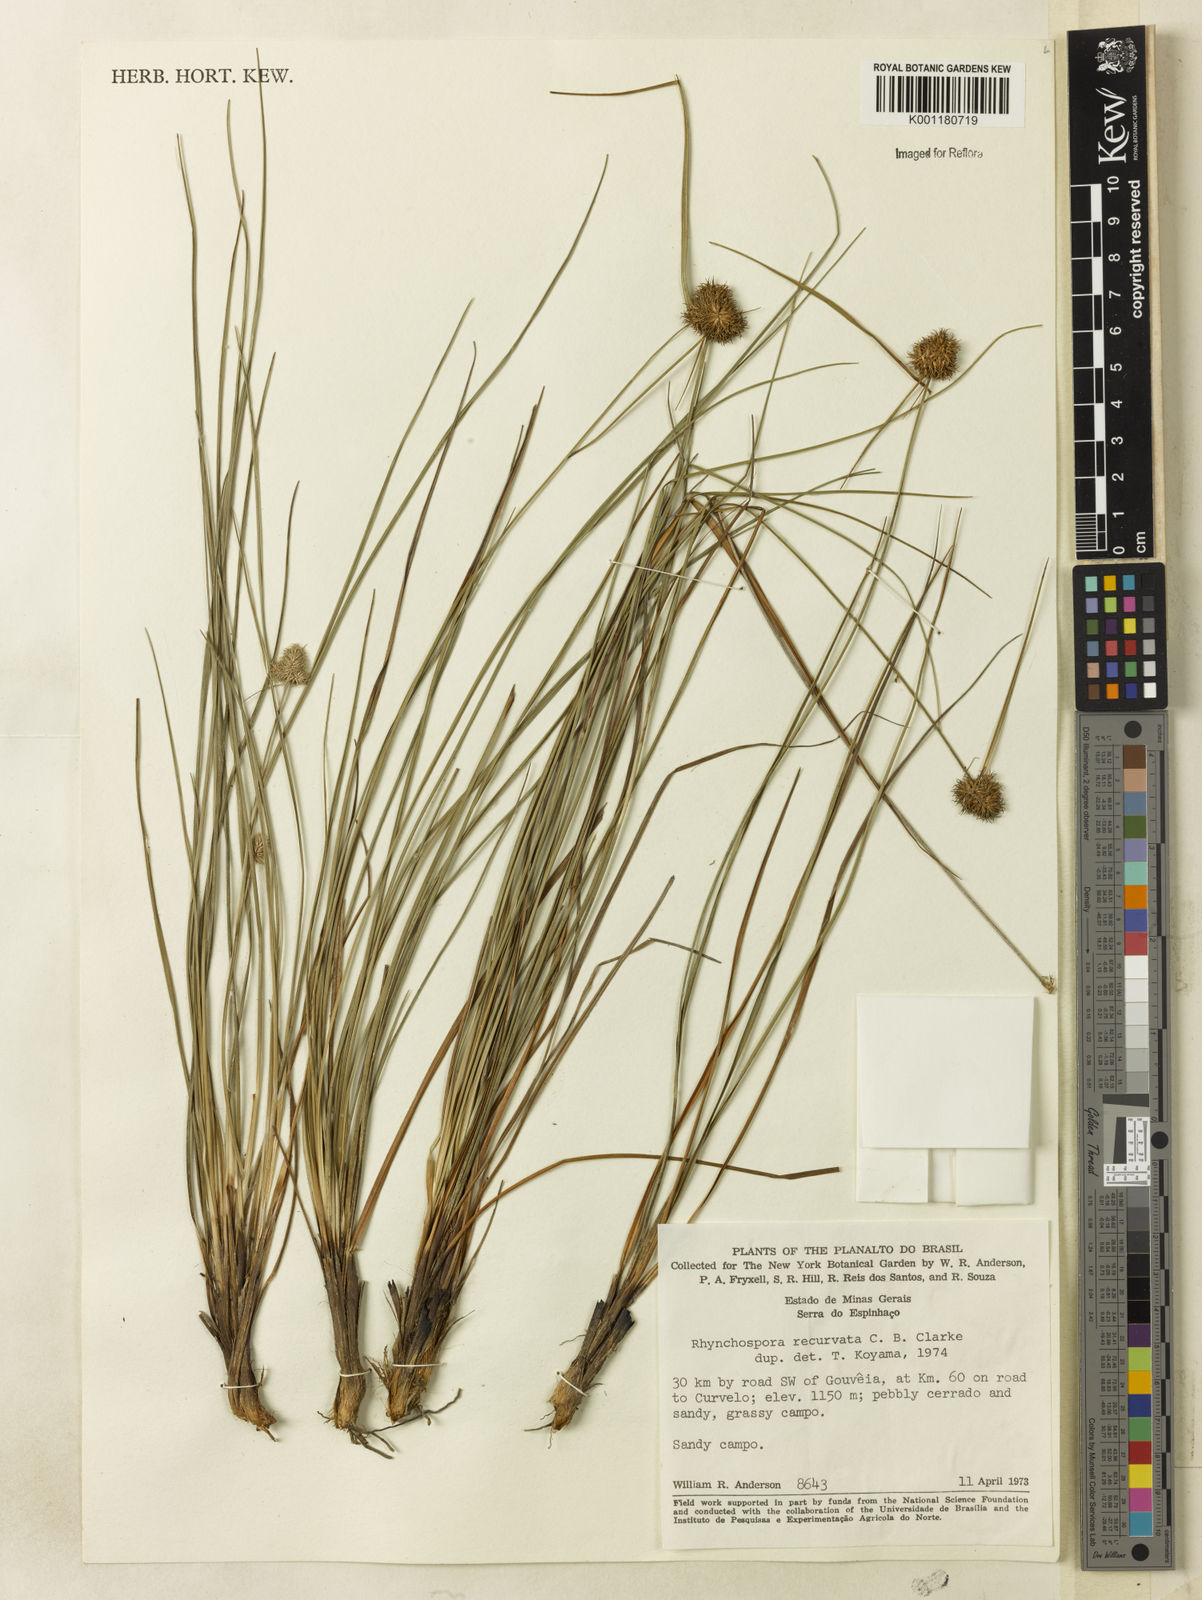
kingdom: Plantae
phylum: Tracheophyta
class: Liliopsida
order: Poales
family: Cyperaceae
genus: Rhynchospora
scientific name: Rhynchospora recurvata
